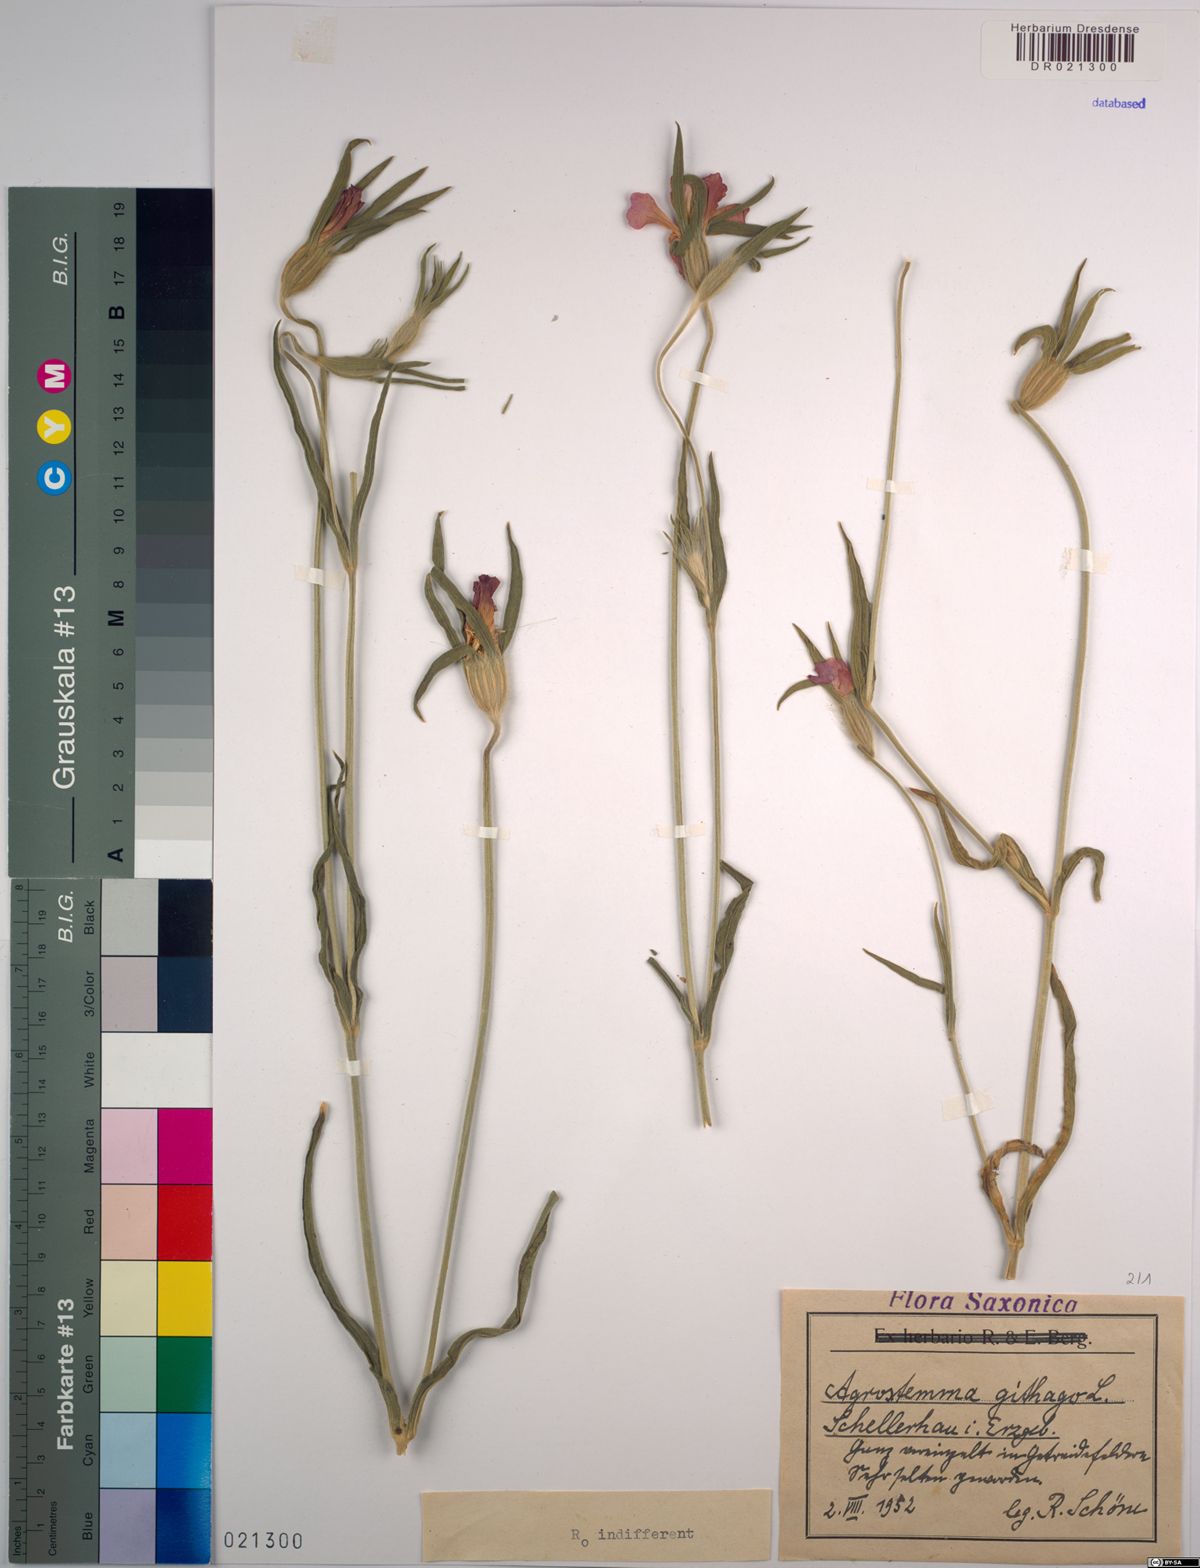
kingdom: Plantae
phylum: Tracheophyta
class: Magnoliopsida
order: Caryophyllales
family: Caryophyllaceae
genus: Agrostemma
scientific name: Agrostemma githago
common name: Common corncockle
